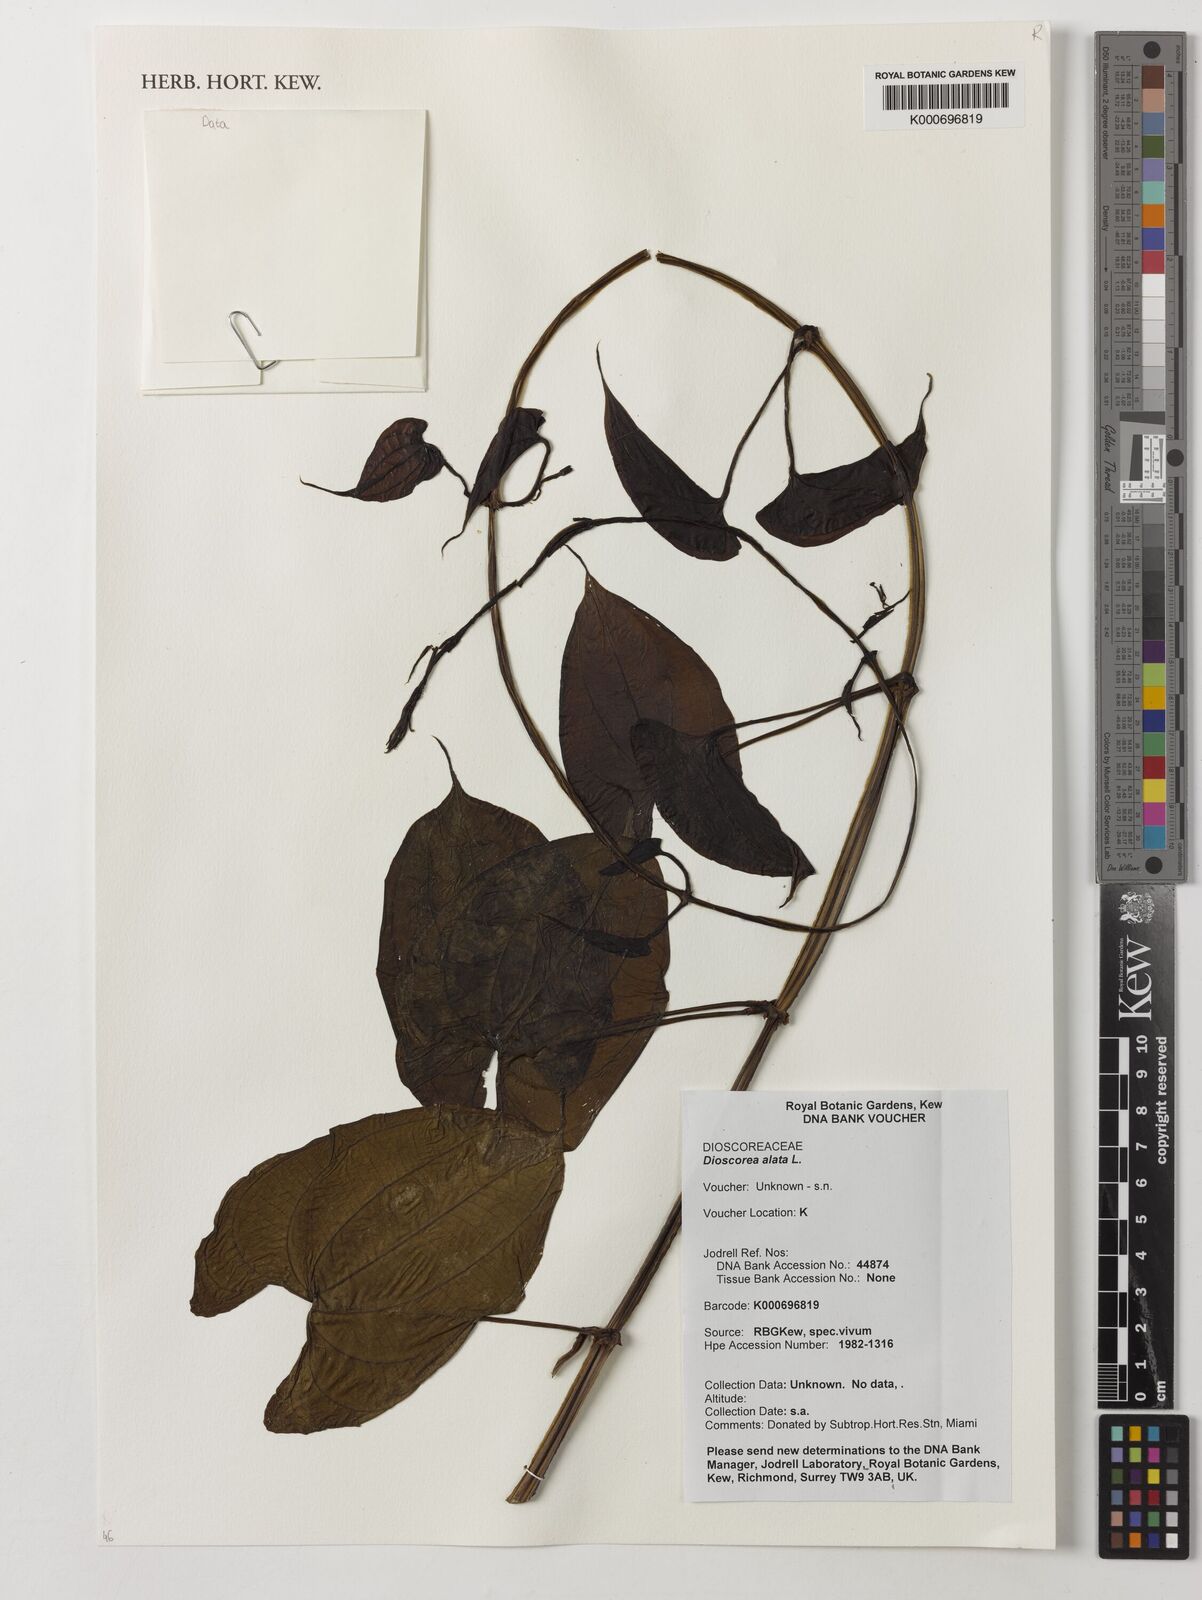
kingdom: Plantae
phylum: Tracheophyta
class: Liliopsida
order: Dioscoreales
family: Dioscoreaceae
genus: Dioscorea
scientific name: Dioscorea alata
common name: Water yam
